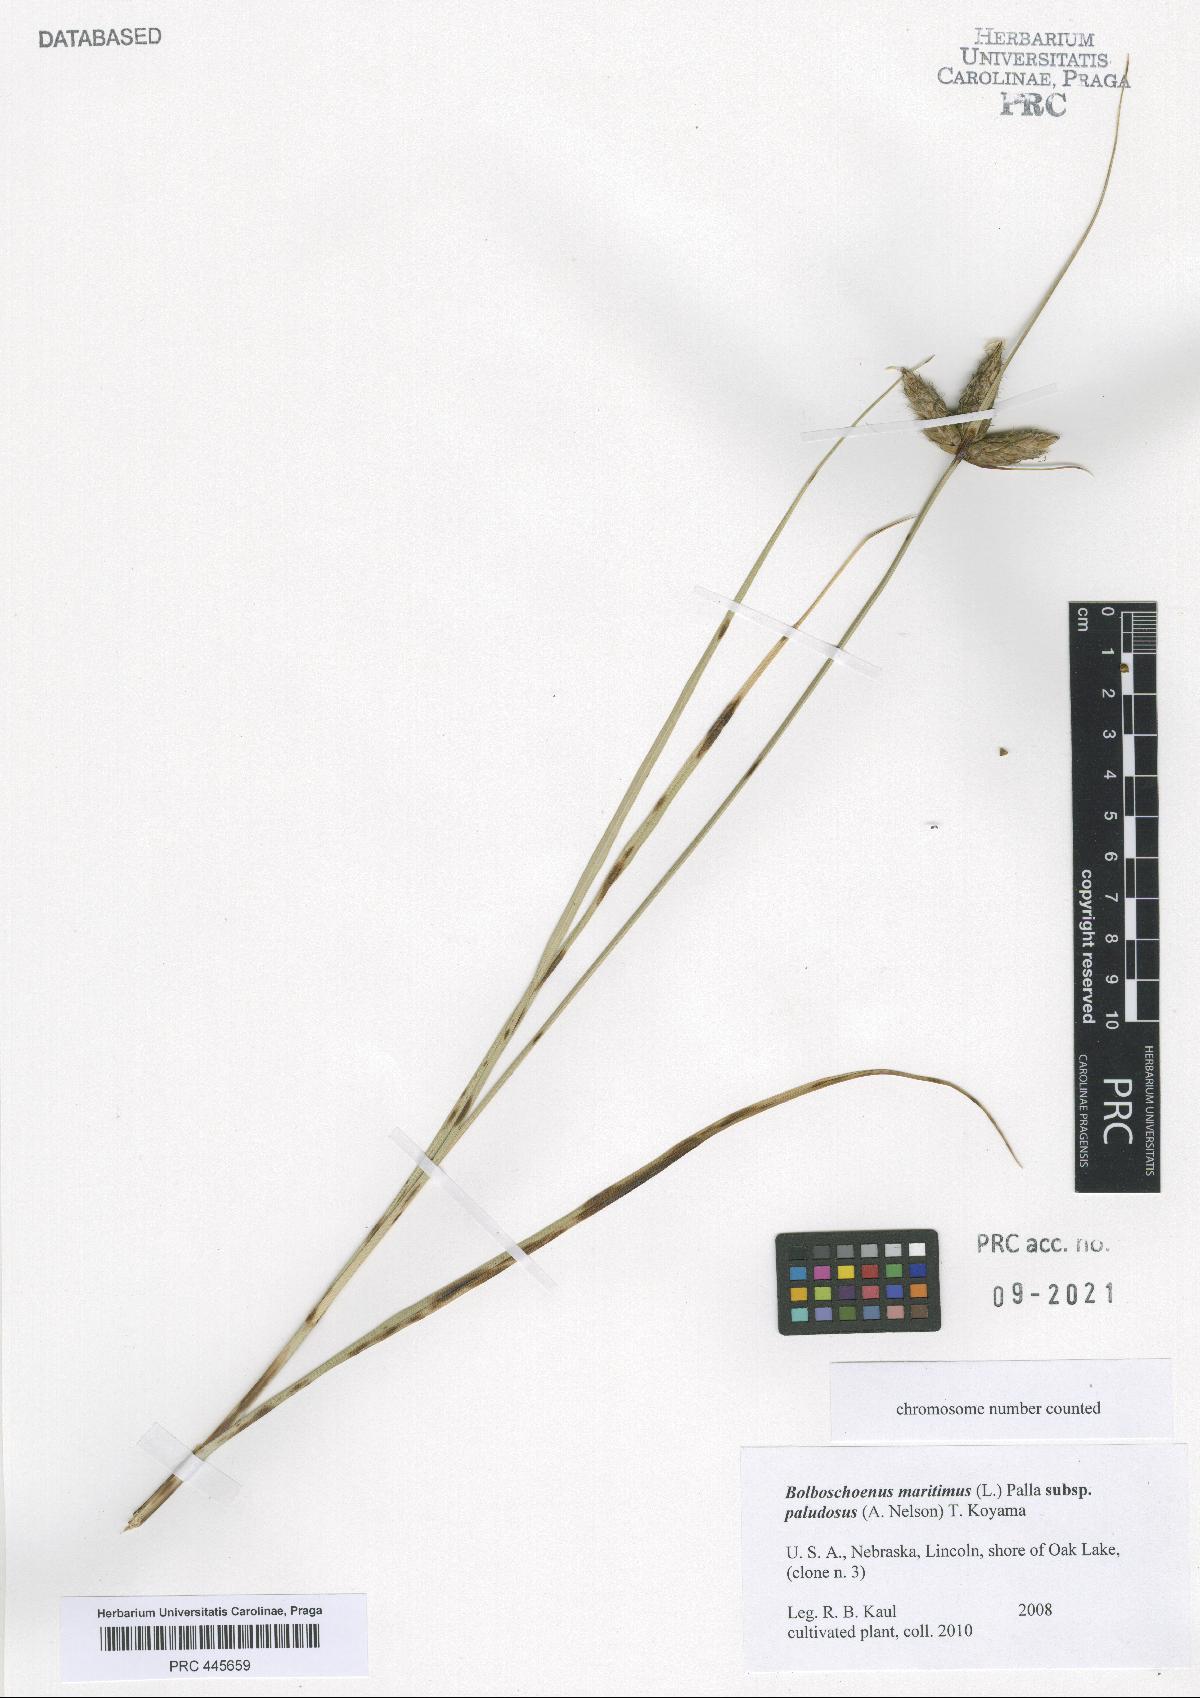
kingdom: Plantae
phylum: Tracheophyta
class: Liliopsida
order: Poales
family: Cyperaceae
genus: Bolboschoenus
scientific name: Bolboschoenus maritimus
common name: Sea club-rush
